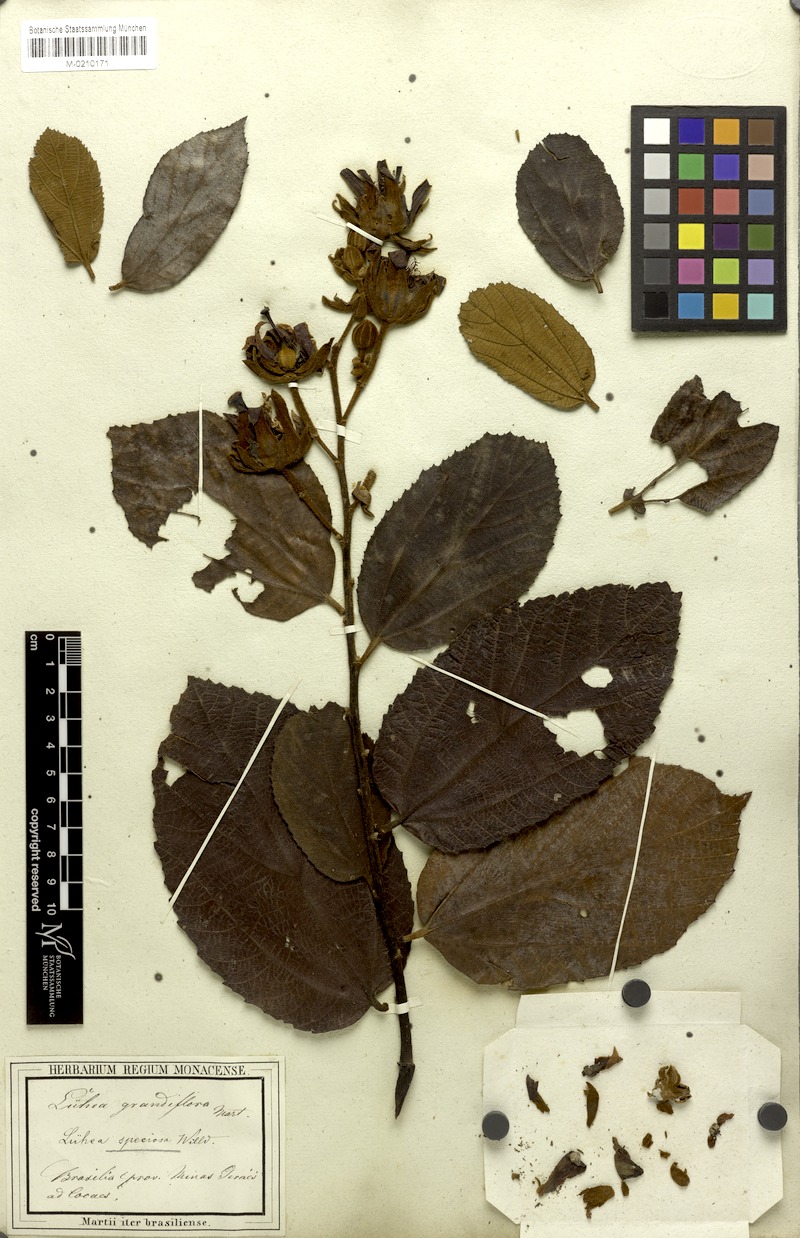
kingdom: Plantae
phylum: Tracheophyta
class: Magnoliopsida
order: Malvales
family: Malvaceae
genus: Luehea
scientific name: Luehea grandiflora
